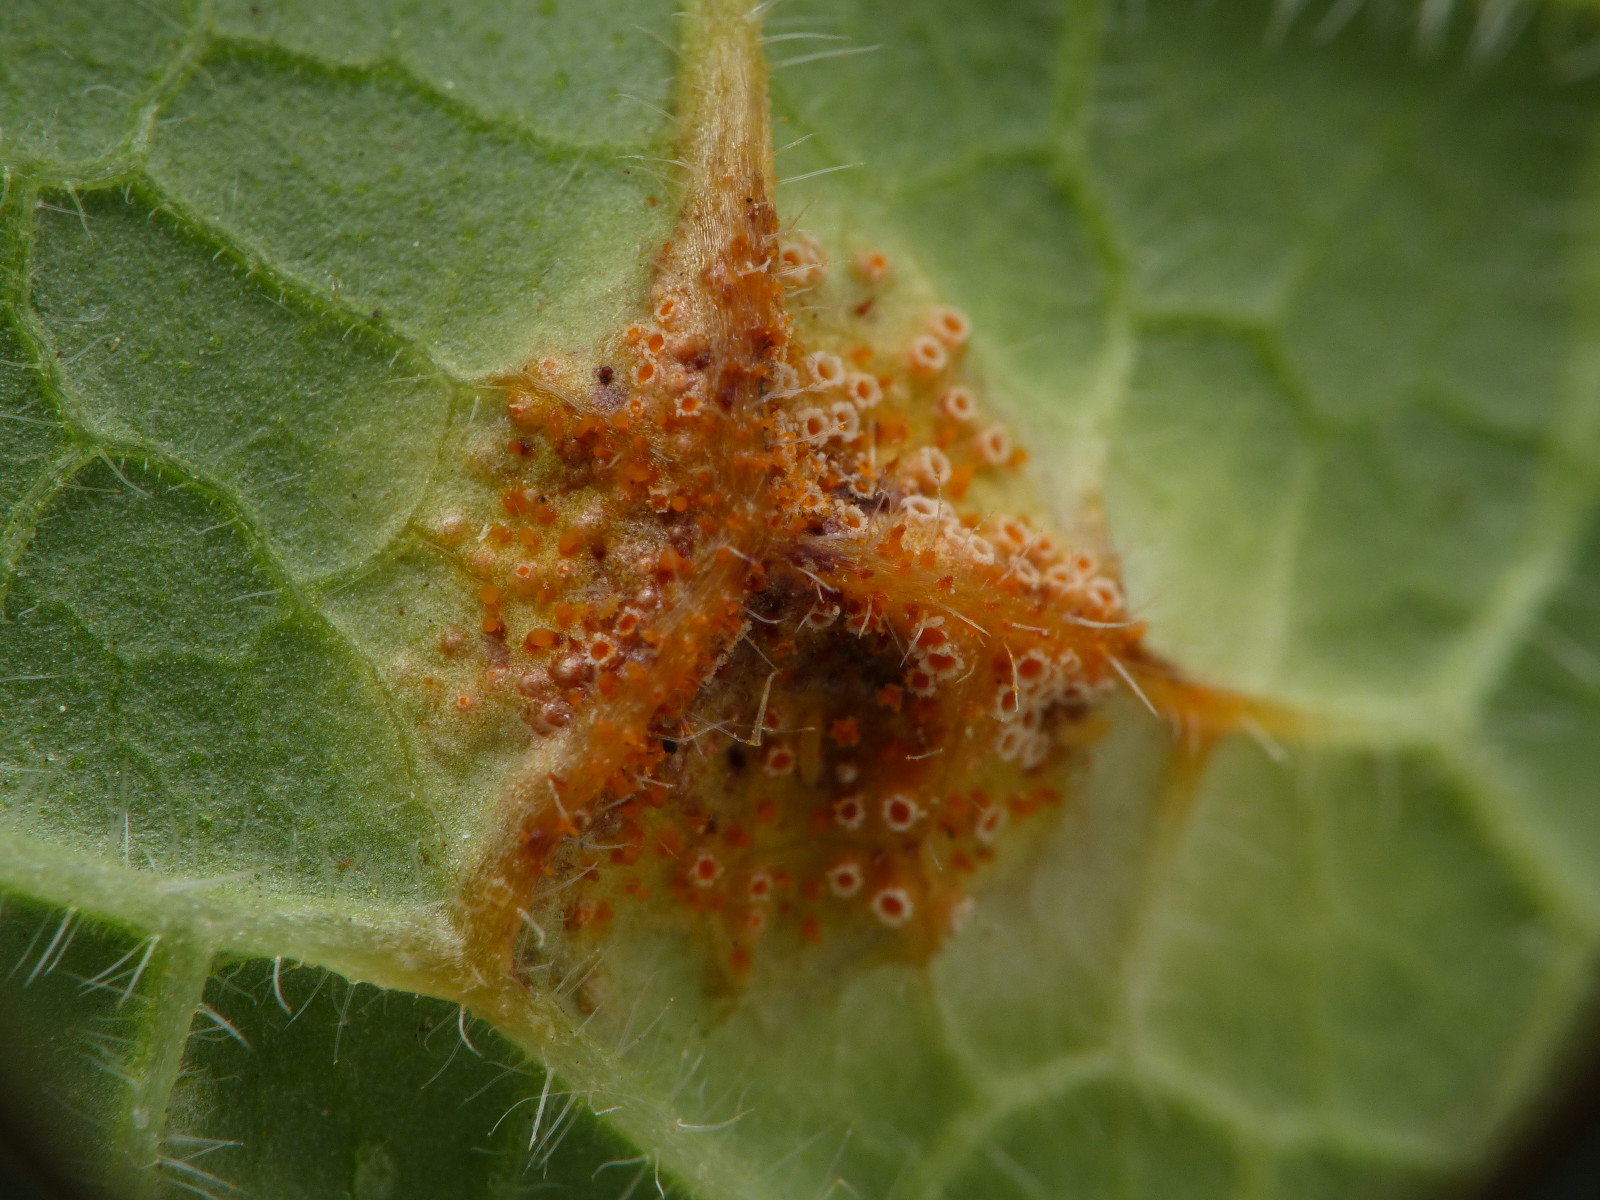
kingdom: Fungi
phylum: Basidiomycota
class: Pucciniomycetes
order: Pucciniales
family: Pucciniaceae
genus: Puccinia
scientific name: Puccinia bromina
